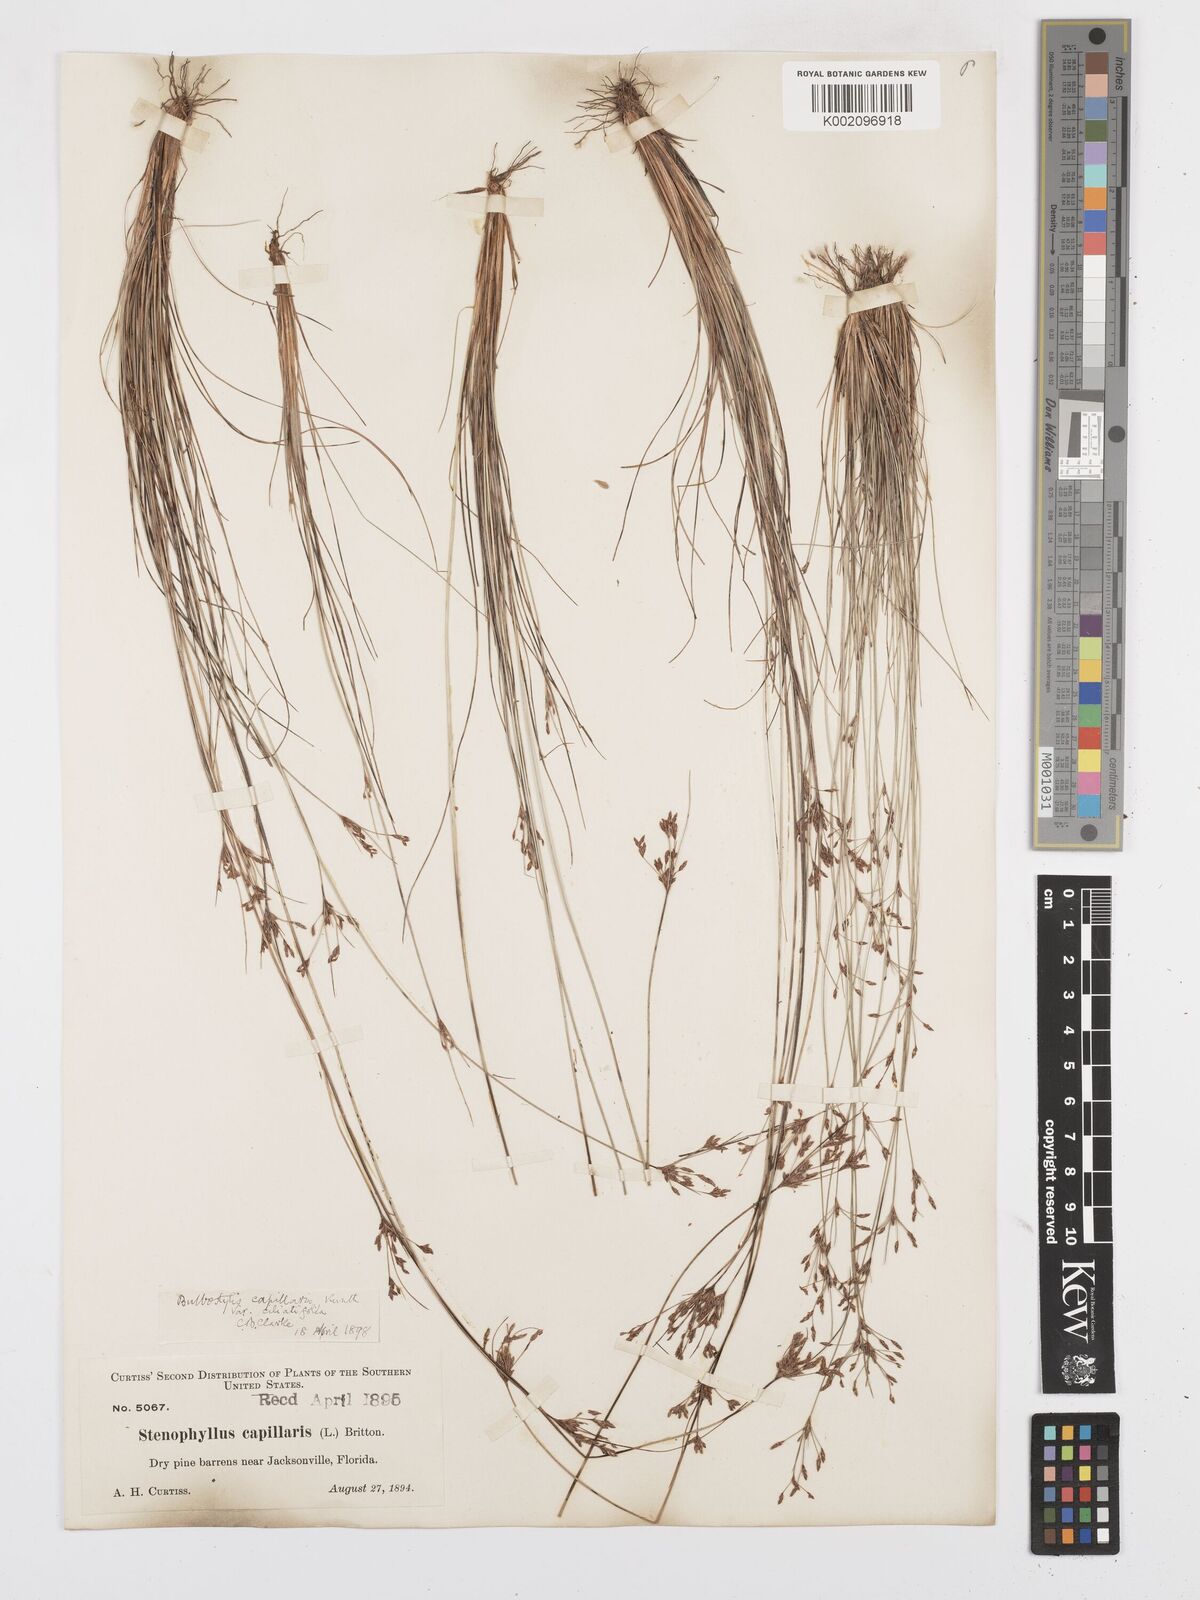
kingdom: Plantae
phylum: Tracheophyta
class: Liliopsida
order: Poales
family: Cyperaceae
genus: Bulbostylis
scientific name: Bulbostylis ciliatifolia
